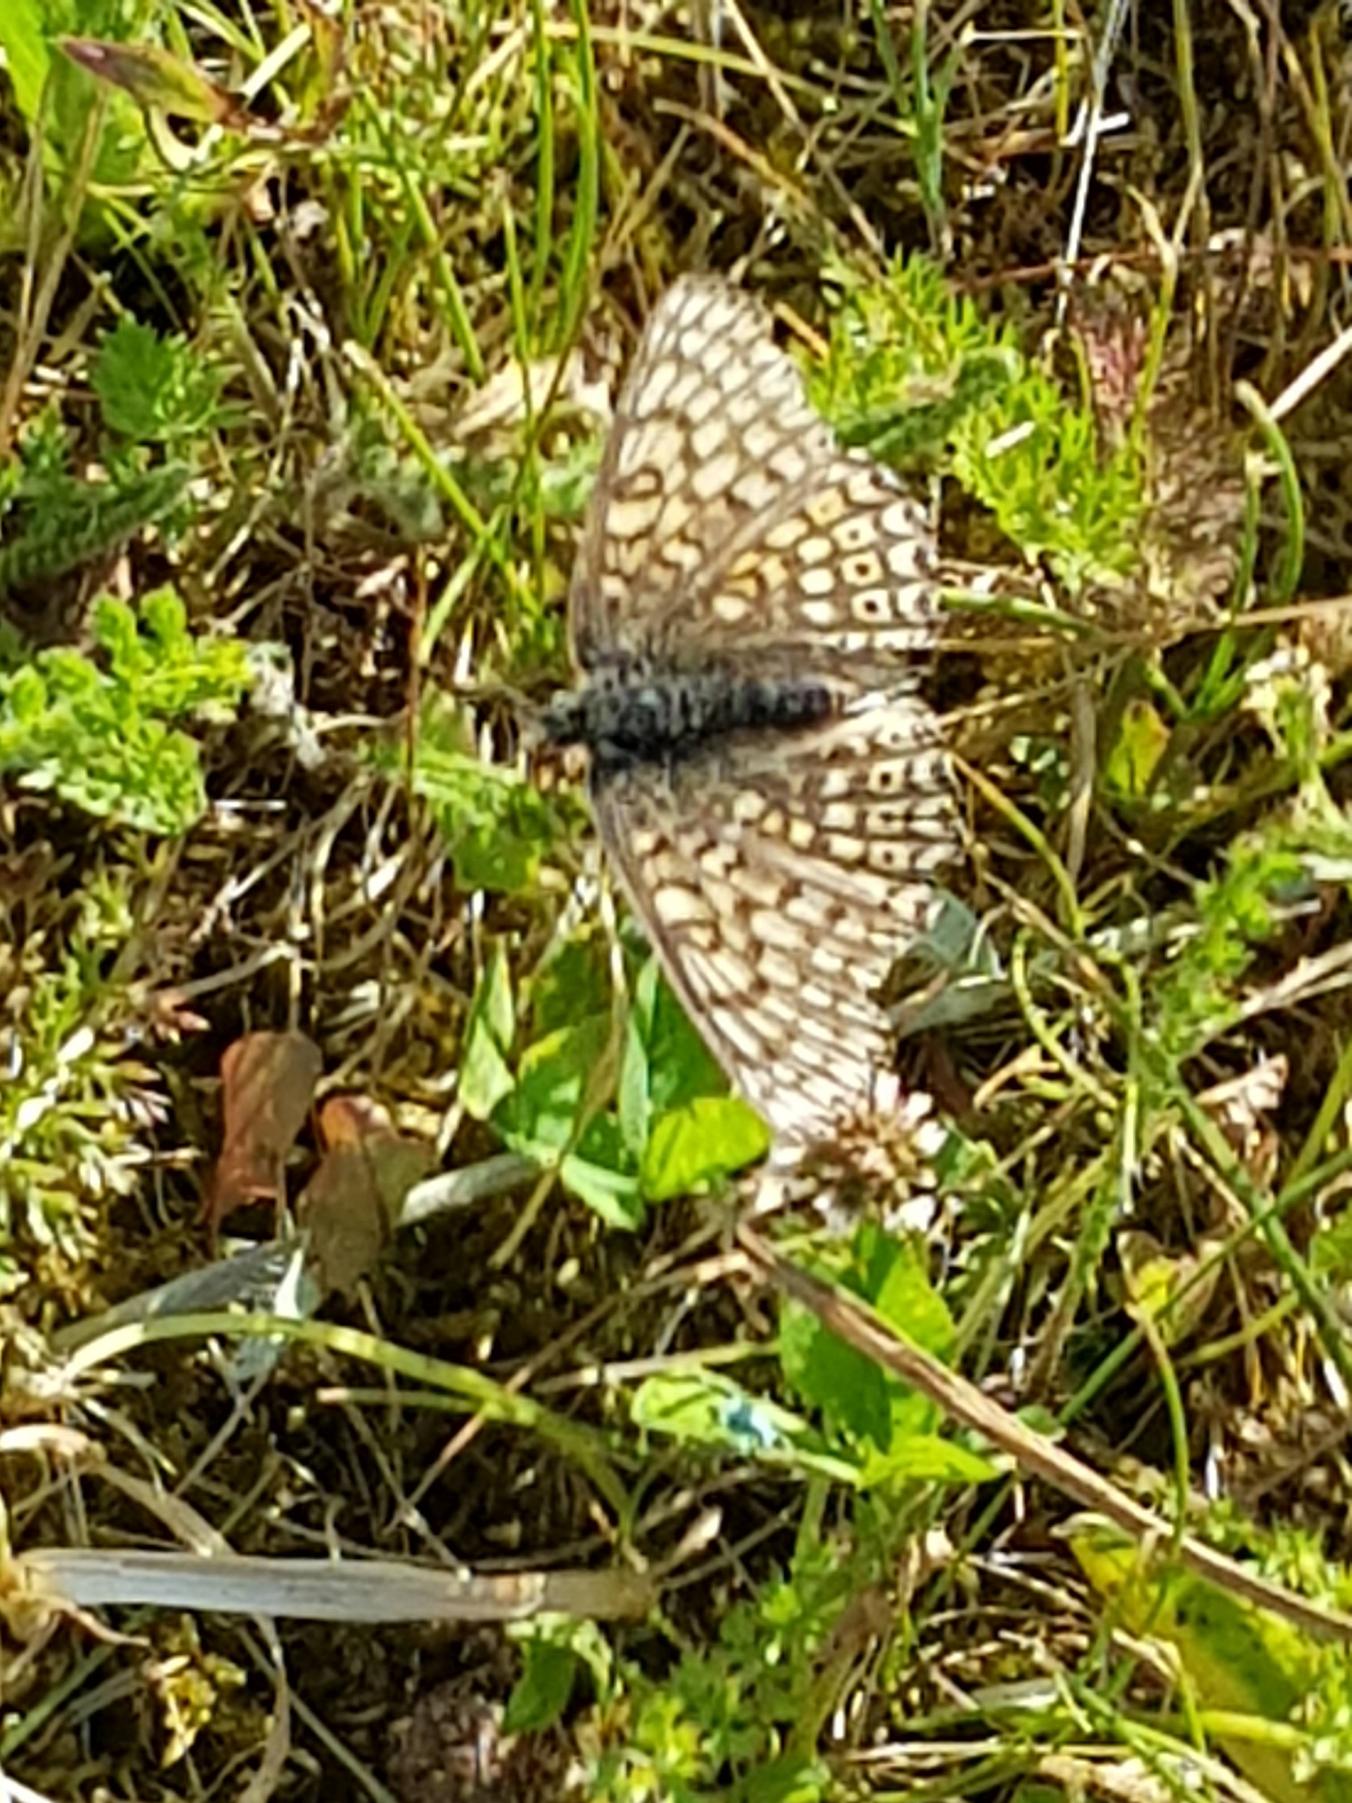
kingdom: Animalia
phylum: Arthropoda
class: Insecta
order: Lepidoptera
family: Nymphalidae
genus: Melitaea
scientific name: Melitaea cinxia
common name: Okkergul pletvinge
